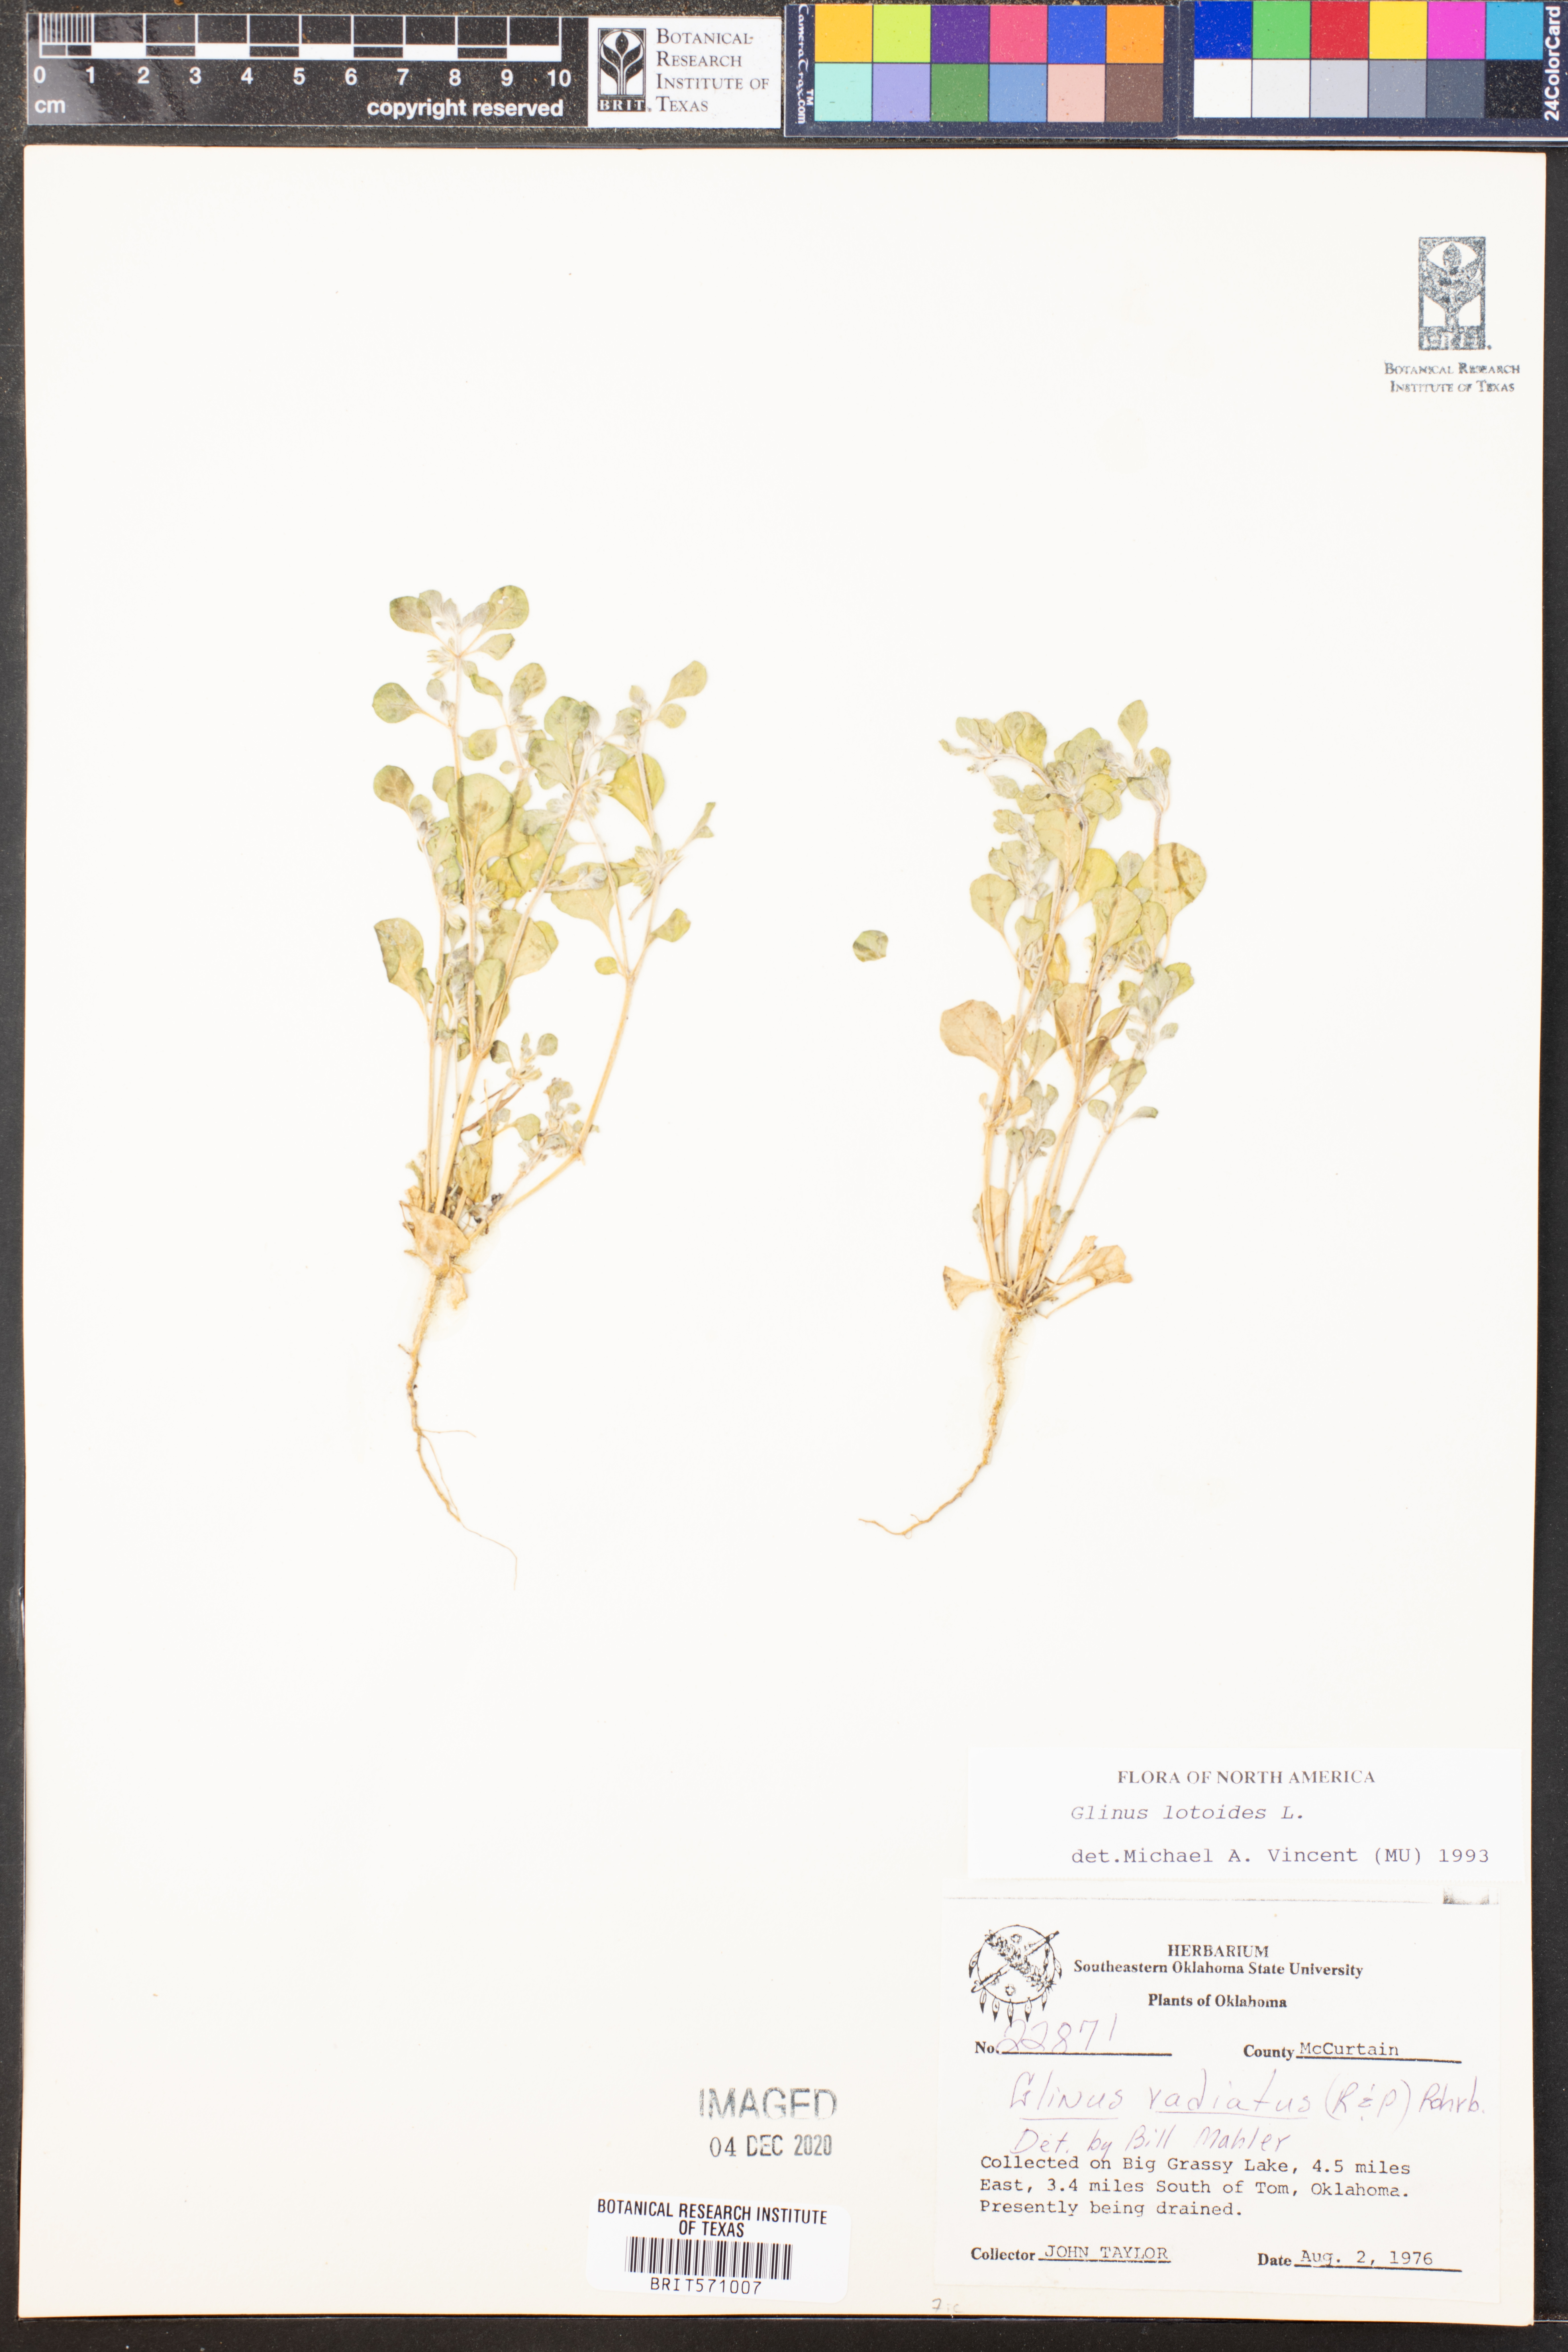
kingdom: Plantae
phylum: Tracheophyta
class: Magnoliopsida
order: Caryophyllales
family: Molluginaceae
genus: Glinus
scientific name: Glinus lotoides
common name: Lotus sweetjuice
